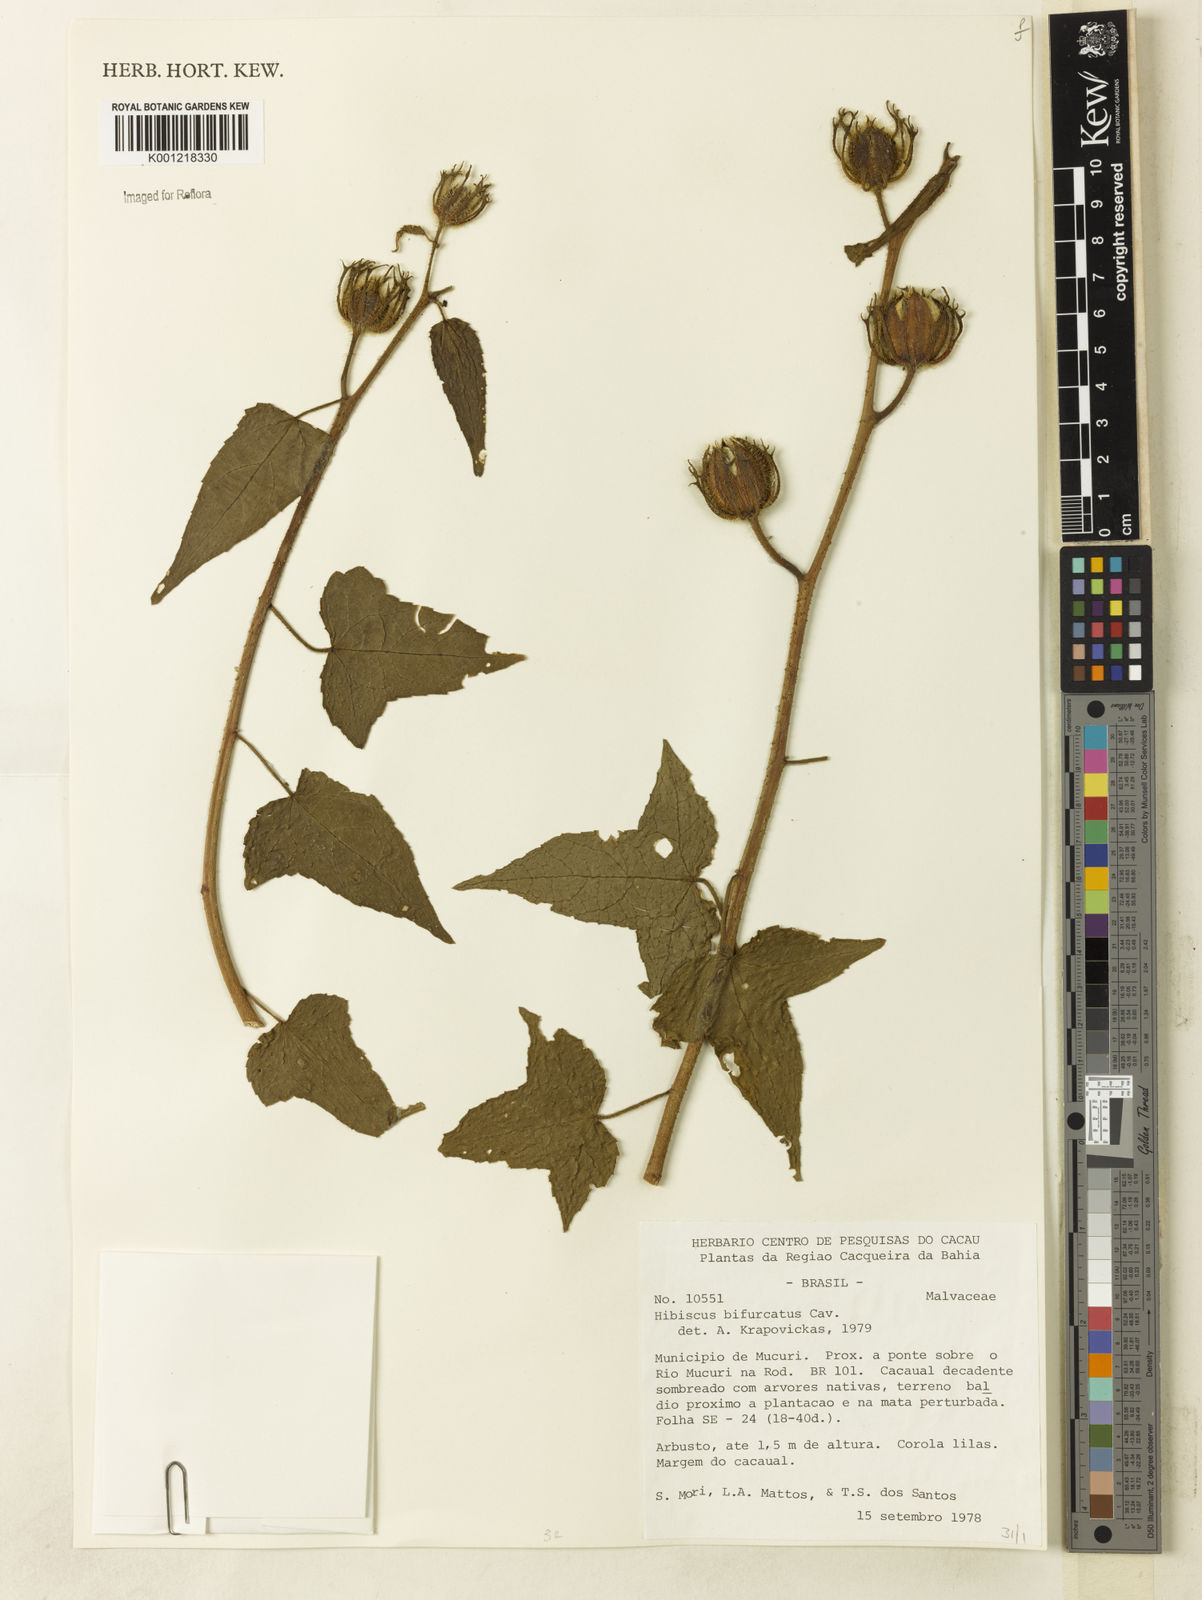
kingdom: Plantae
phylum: Tracheophyta
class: Magnoliopsida
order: Malvales
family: Malvaceae
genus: Hibiscus
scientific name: Hibiscus bifurcatus
